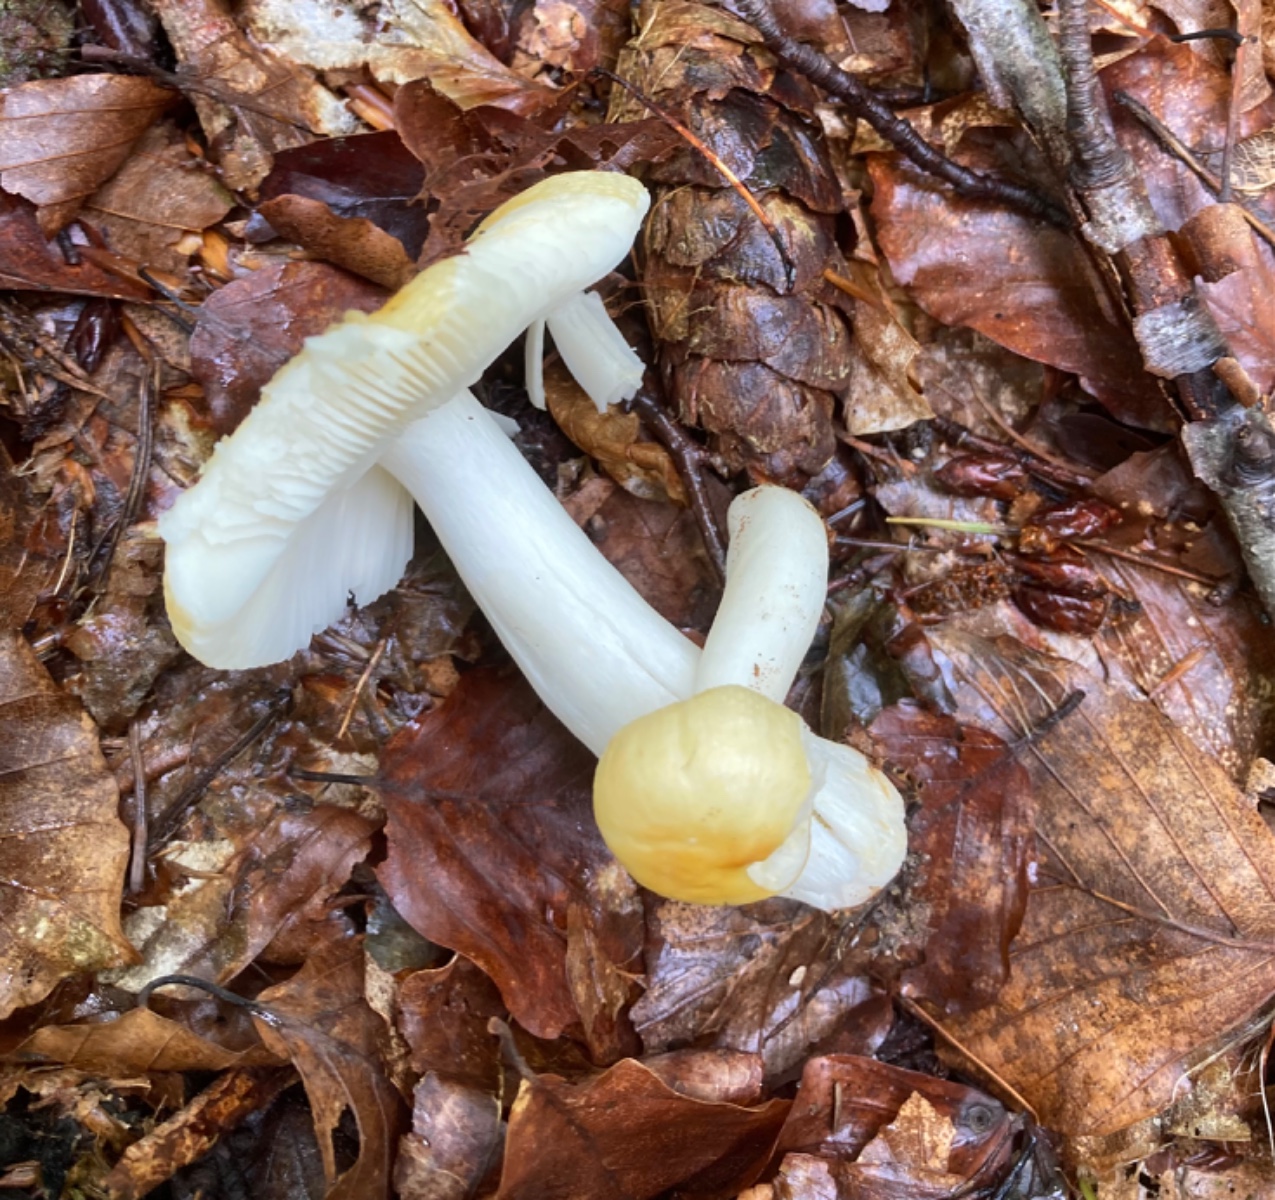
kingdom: Fungi
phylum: Basidiomycota
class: Agaricomycetes
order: Russulales
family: Russulaceae
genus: Russula
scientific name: Russula solaris
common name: sol-skørhat
